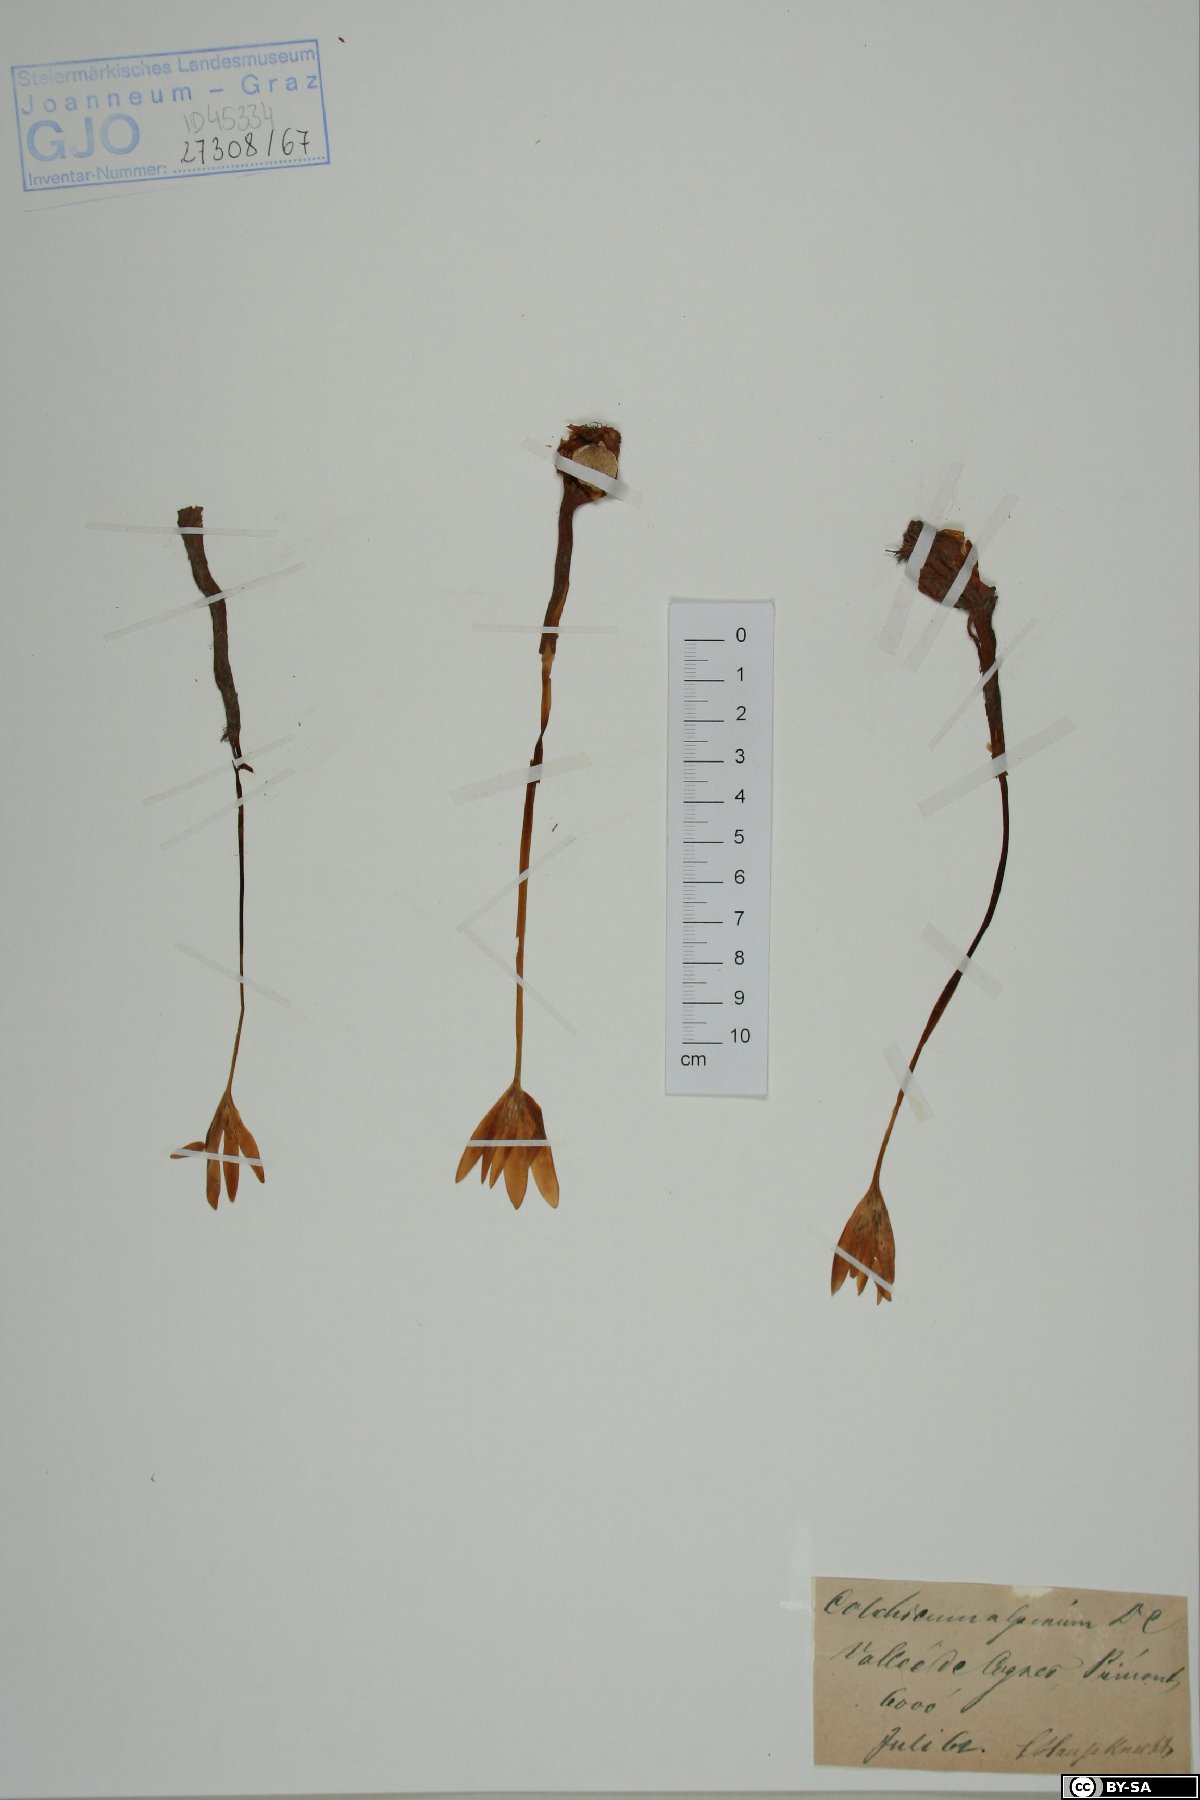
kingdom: Plantae
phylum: Tracheophyta
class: Liliopsida
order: Liliales
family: Colchicaceae
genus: Colchicum
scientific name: Colchicum alpinum
